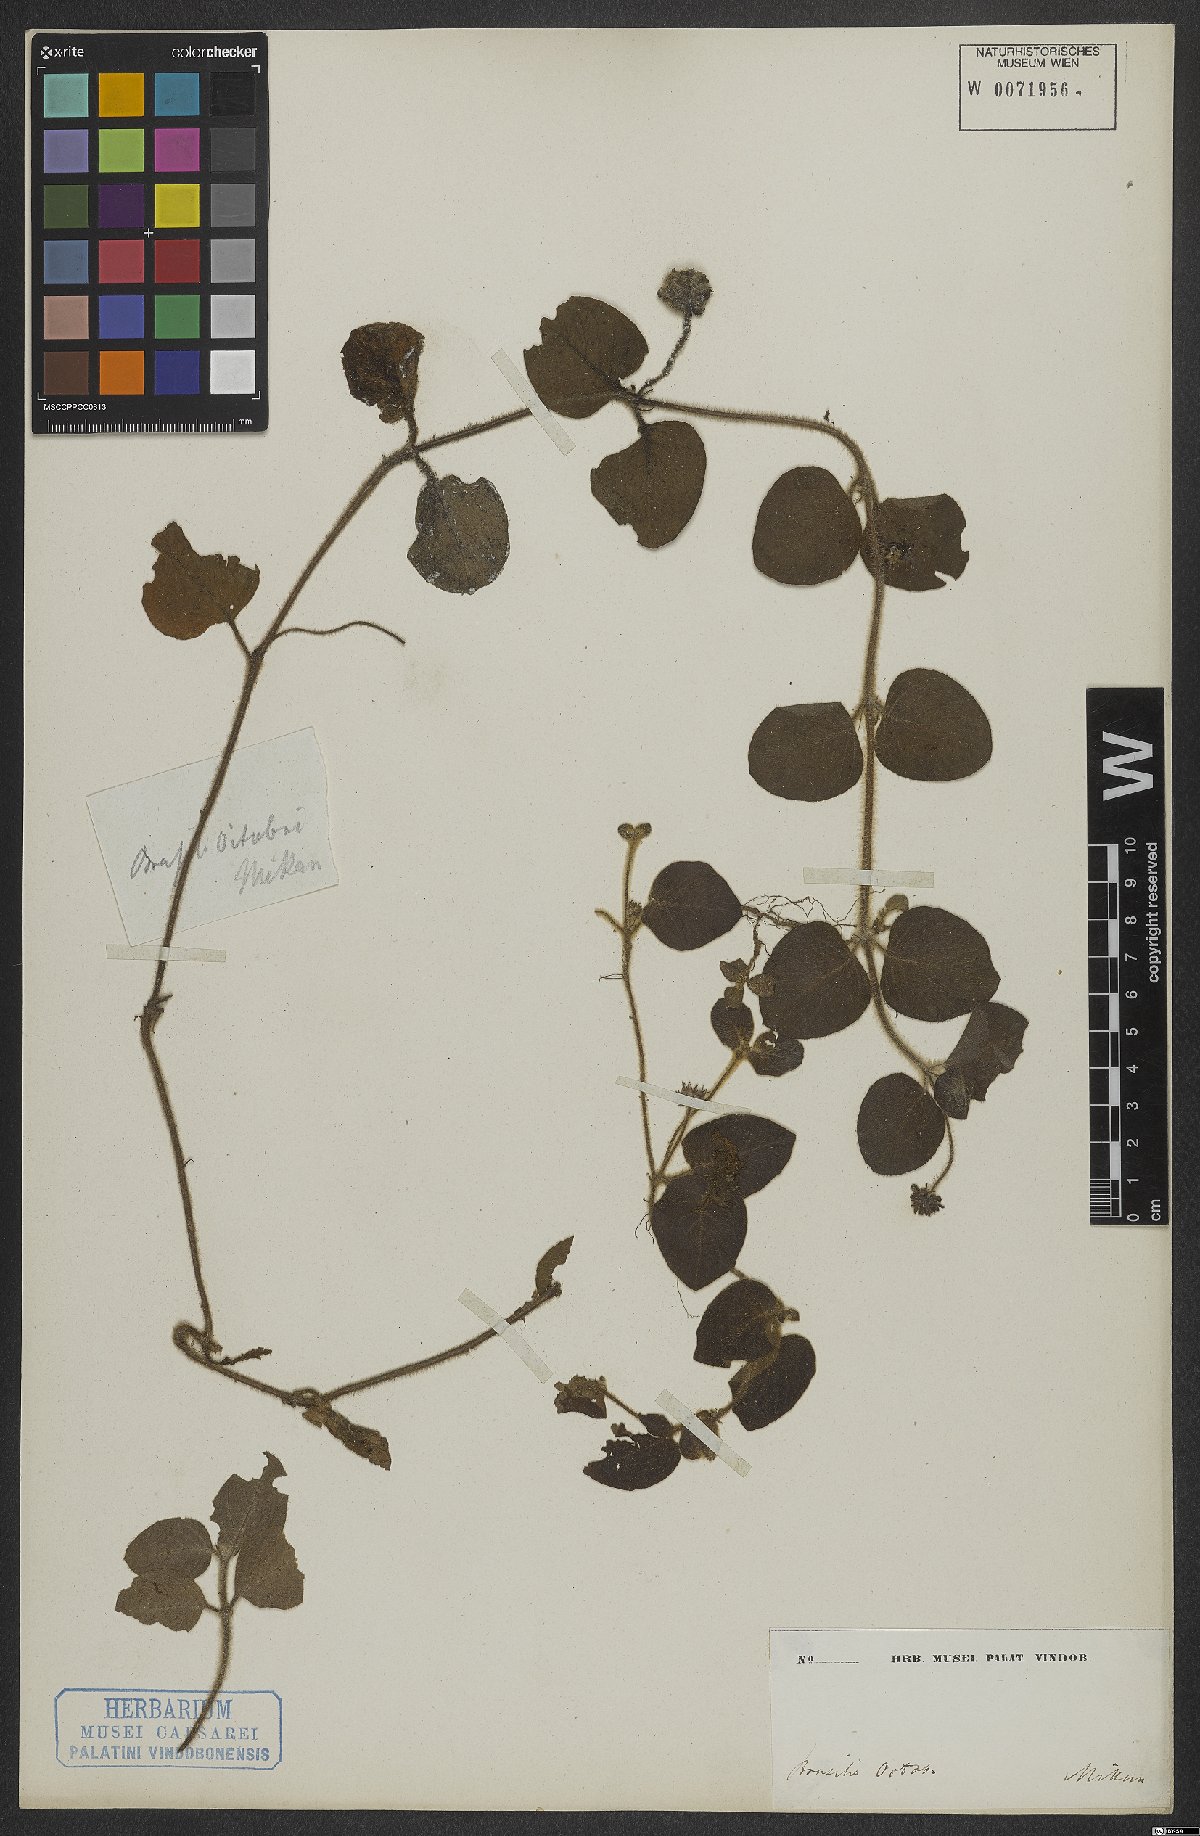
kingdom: Plantae
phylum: Tracheophyta
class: Magnoliopsida
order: Gentianales
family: Rubiaceae
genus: Coccocypselum
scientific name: Coccocypselum
